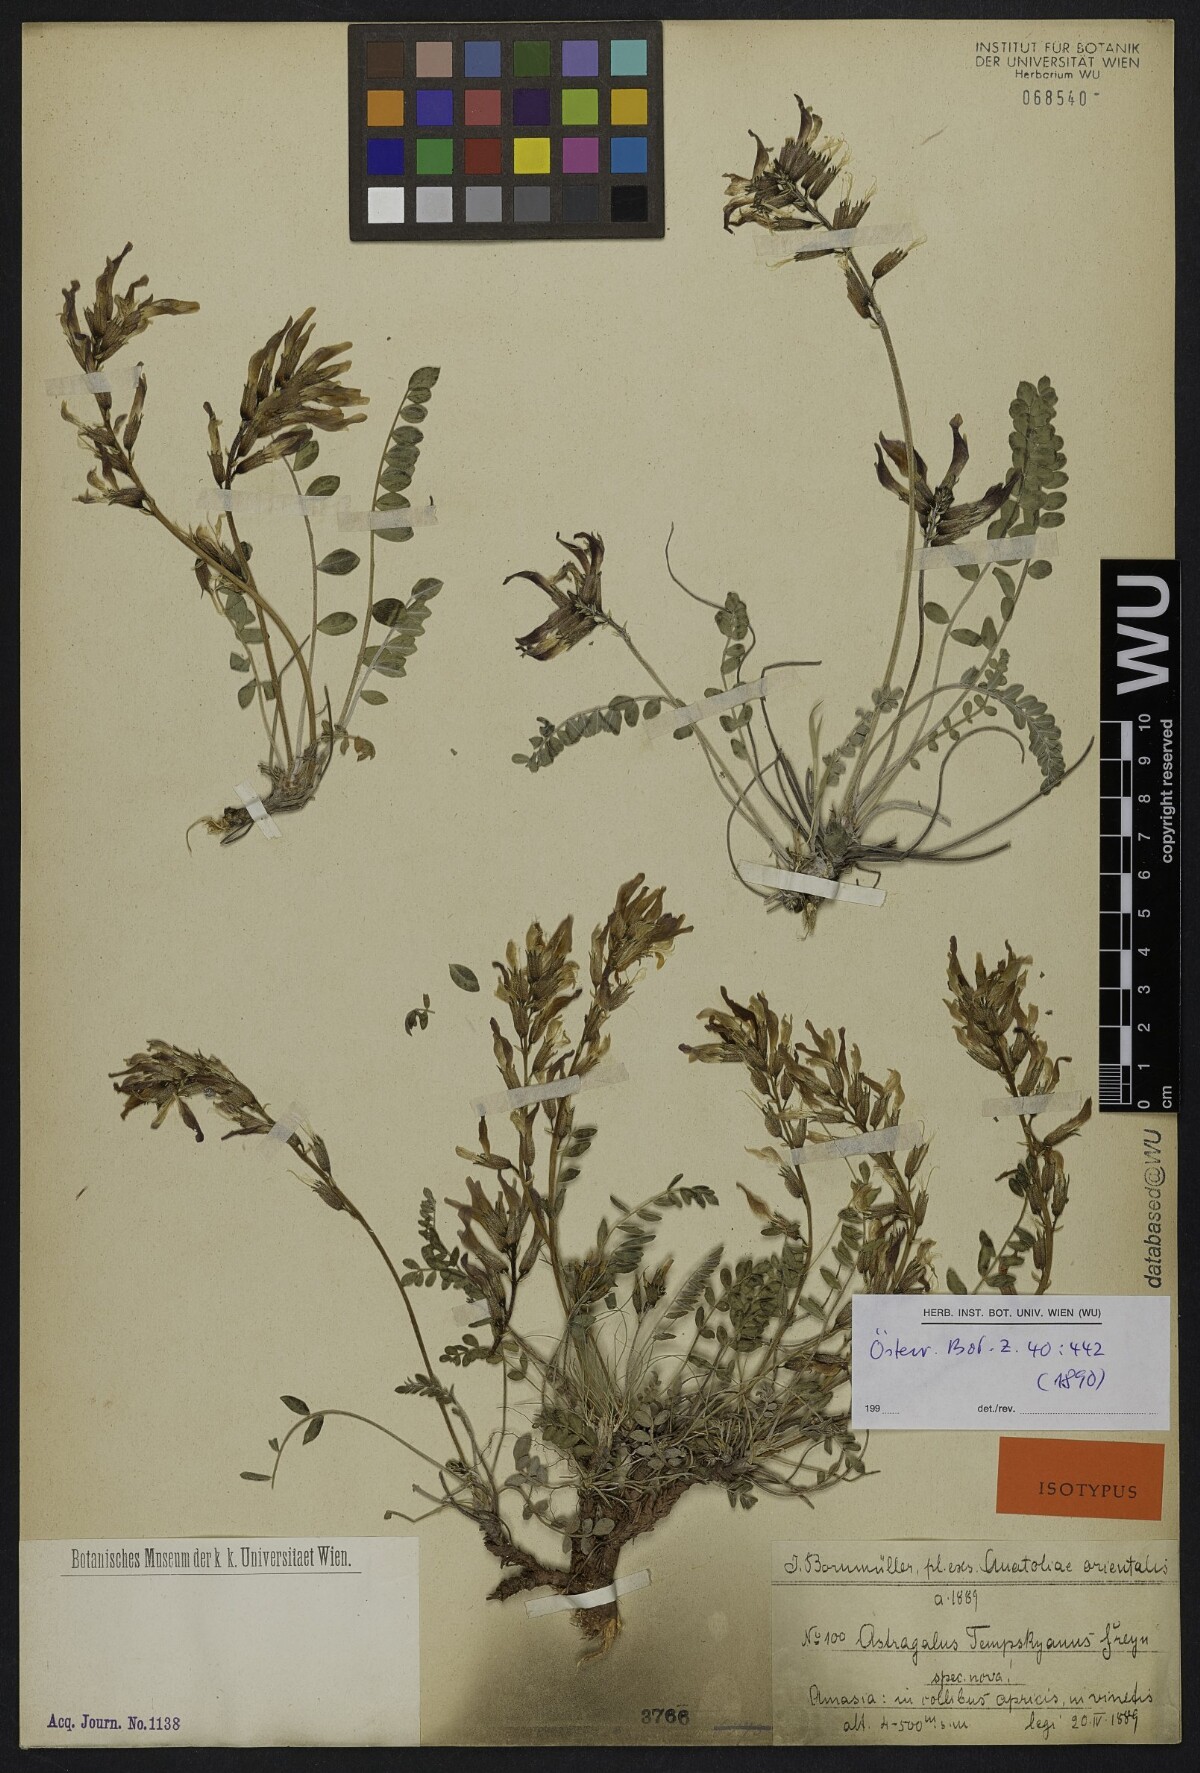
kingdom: Plantae
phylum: Tracheophyta
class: Magnoliopsida
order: Fabales
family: Fabaceae
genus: Astragalus
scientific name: Astragalus spruneri
